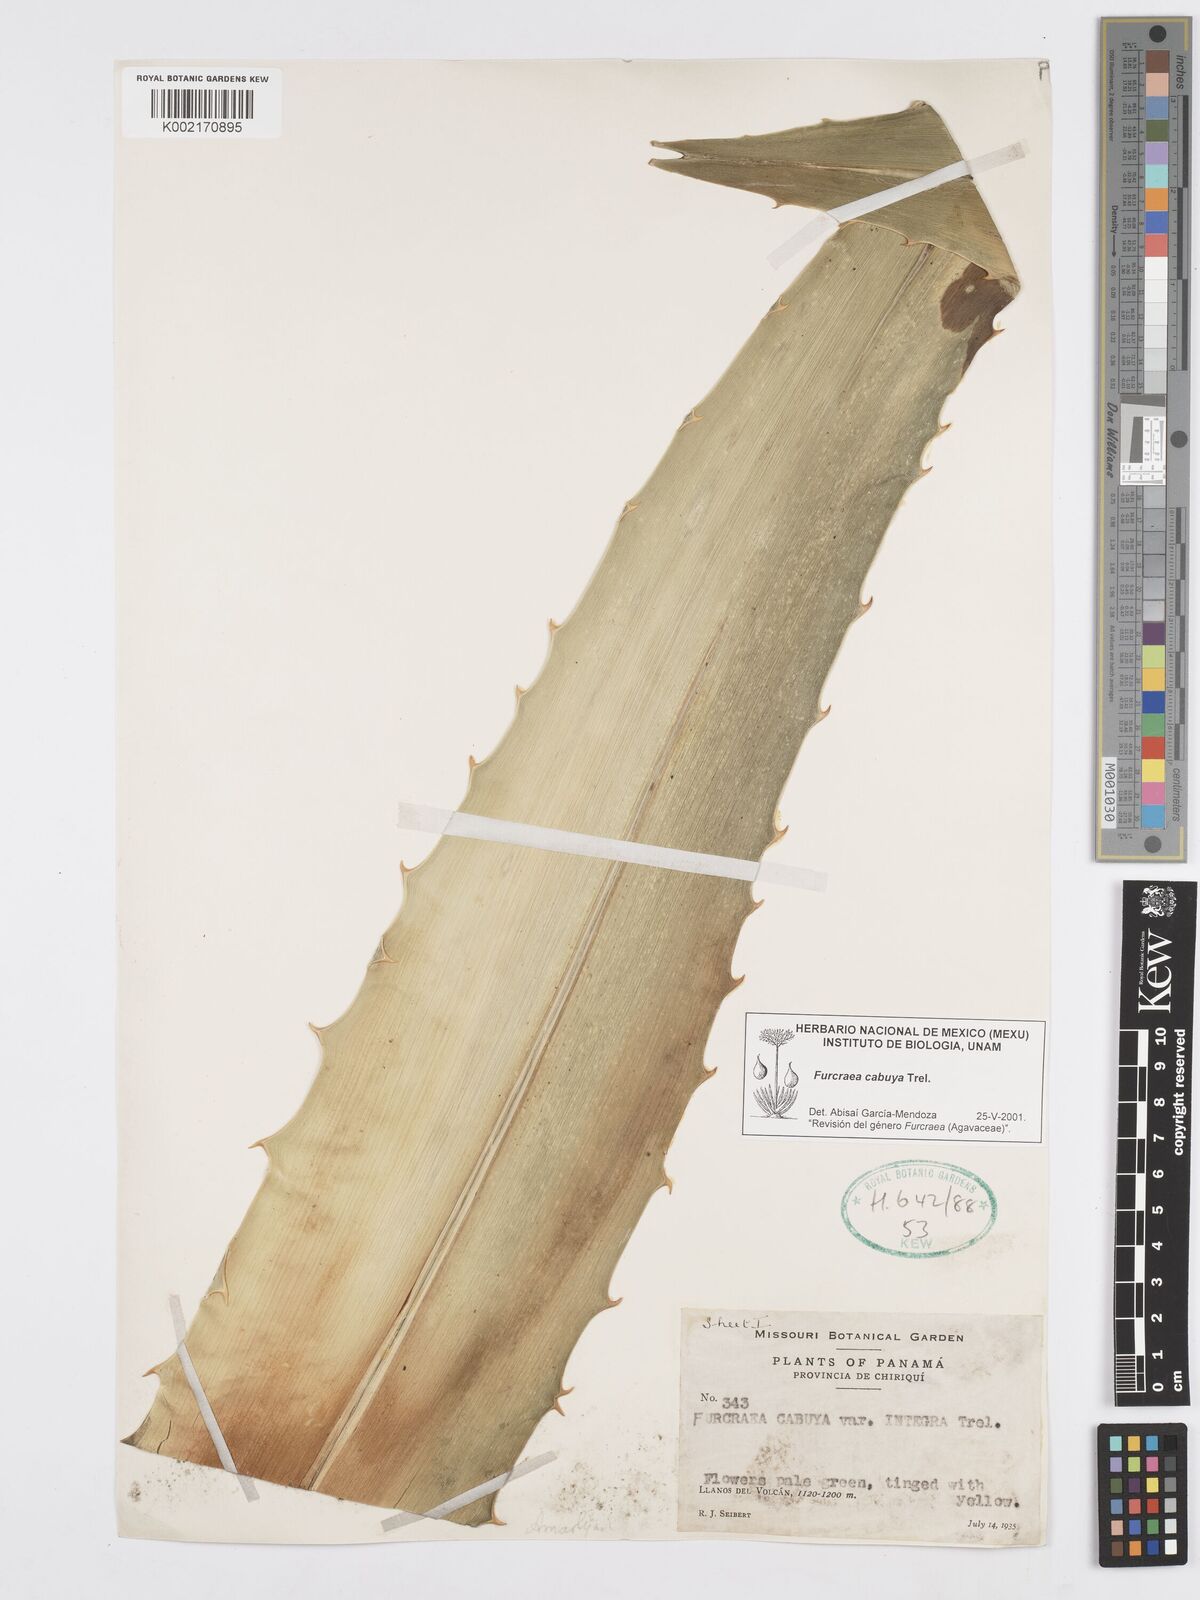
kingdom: Plantae
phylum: Tracheophyta
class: Liliopsida
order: Asparagales
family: Asparagaceae
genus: Furcraea
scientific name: Furcraea cabuya
